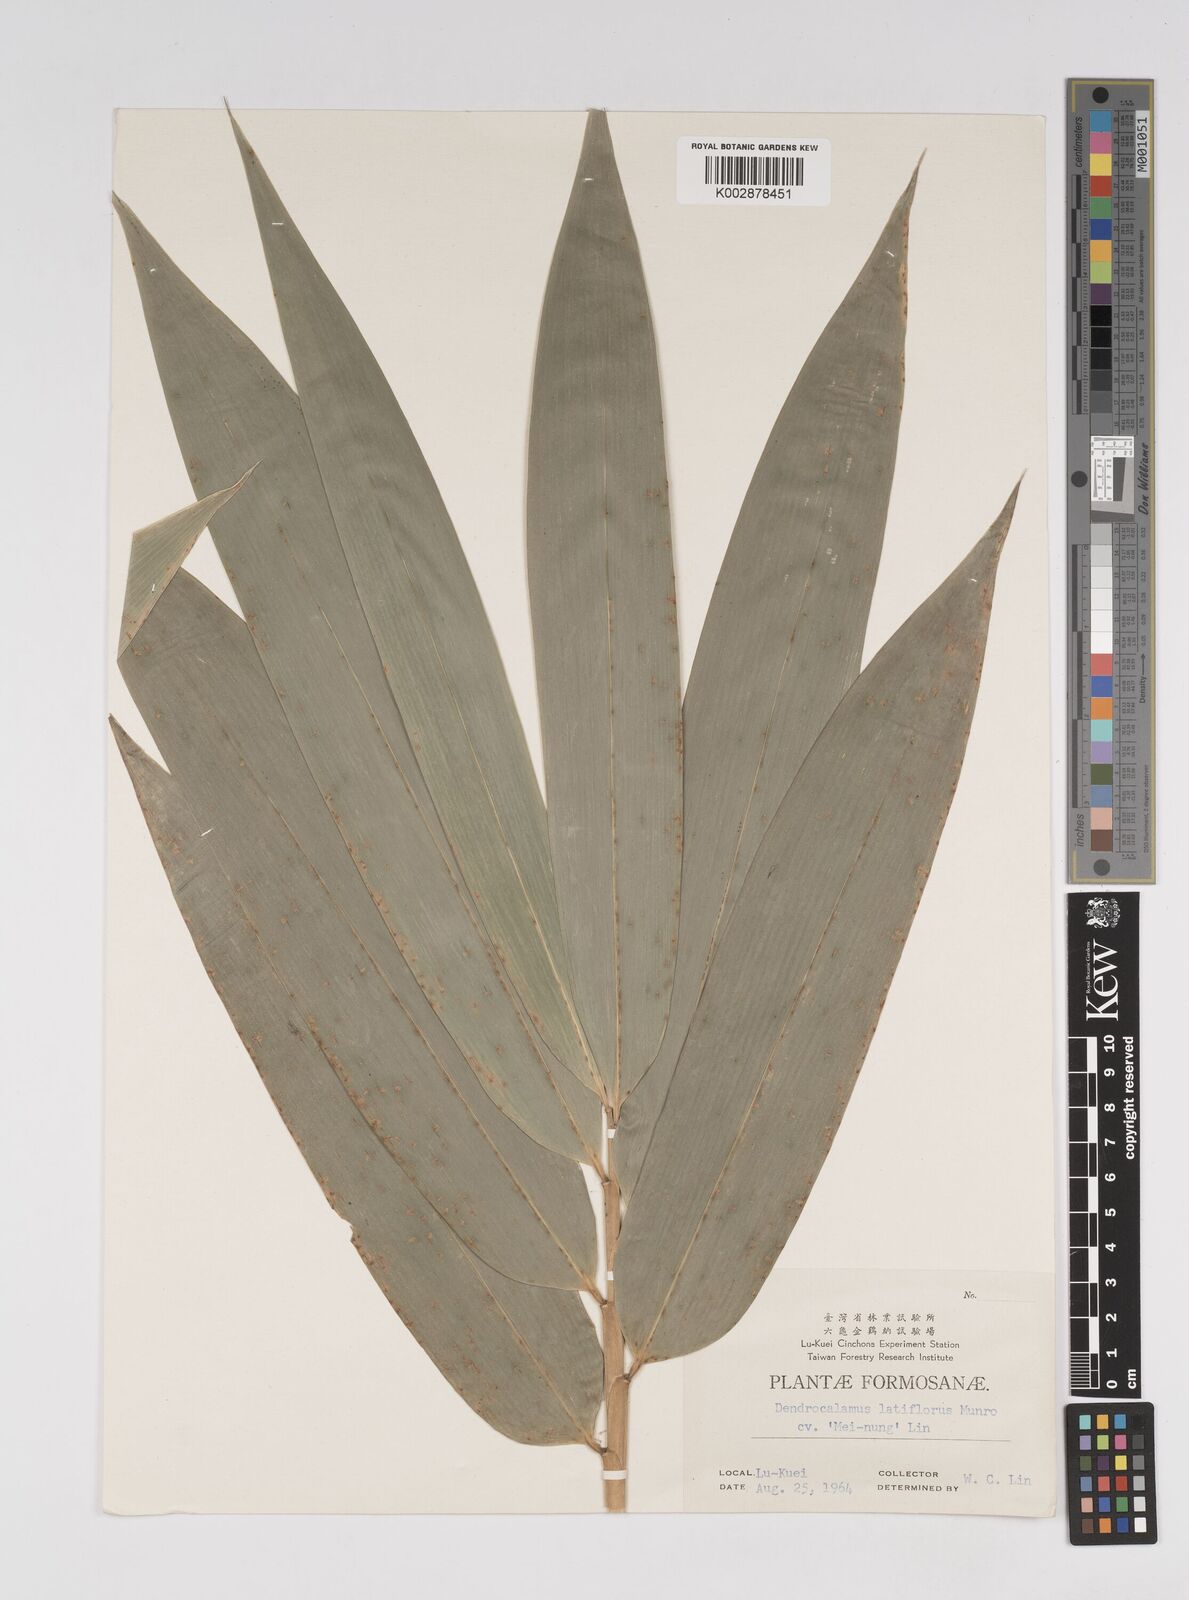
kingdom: Plantae
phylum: Tracheophyta
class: Liliopsida
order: Poales
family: Poaceae
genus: Dendrocalamus
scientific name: Dendrocalamus latiflorus
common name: Giant bamboo
